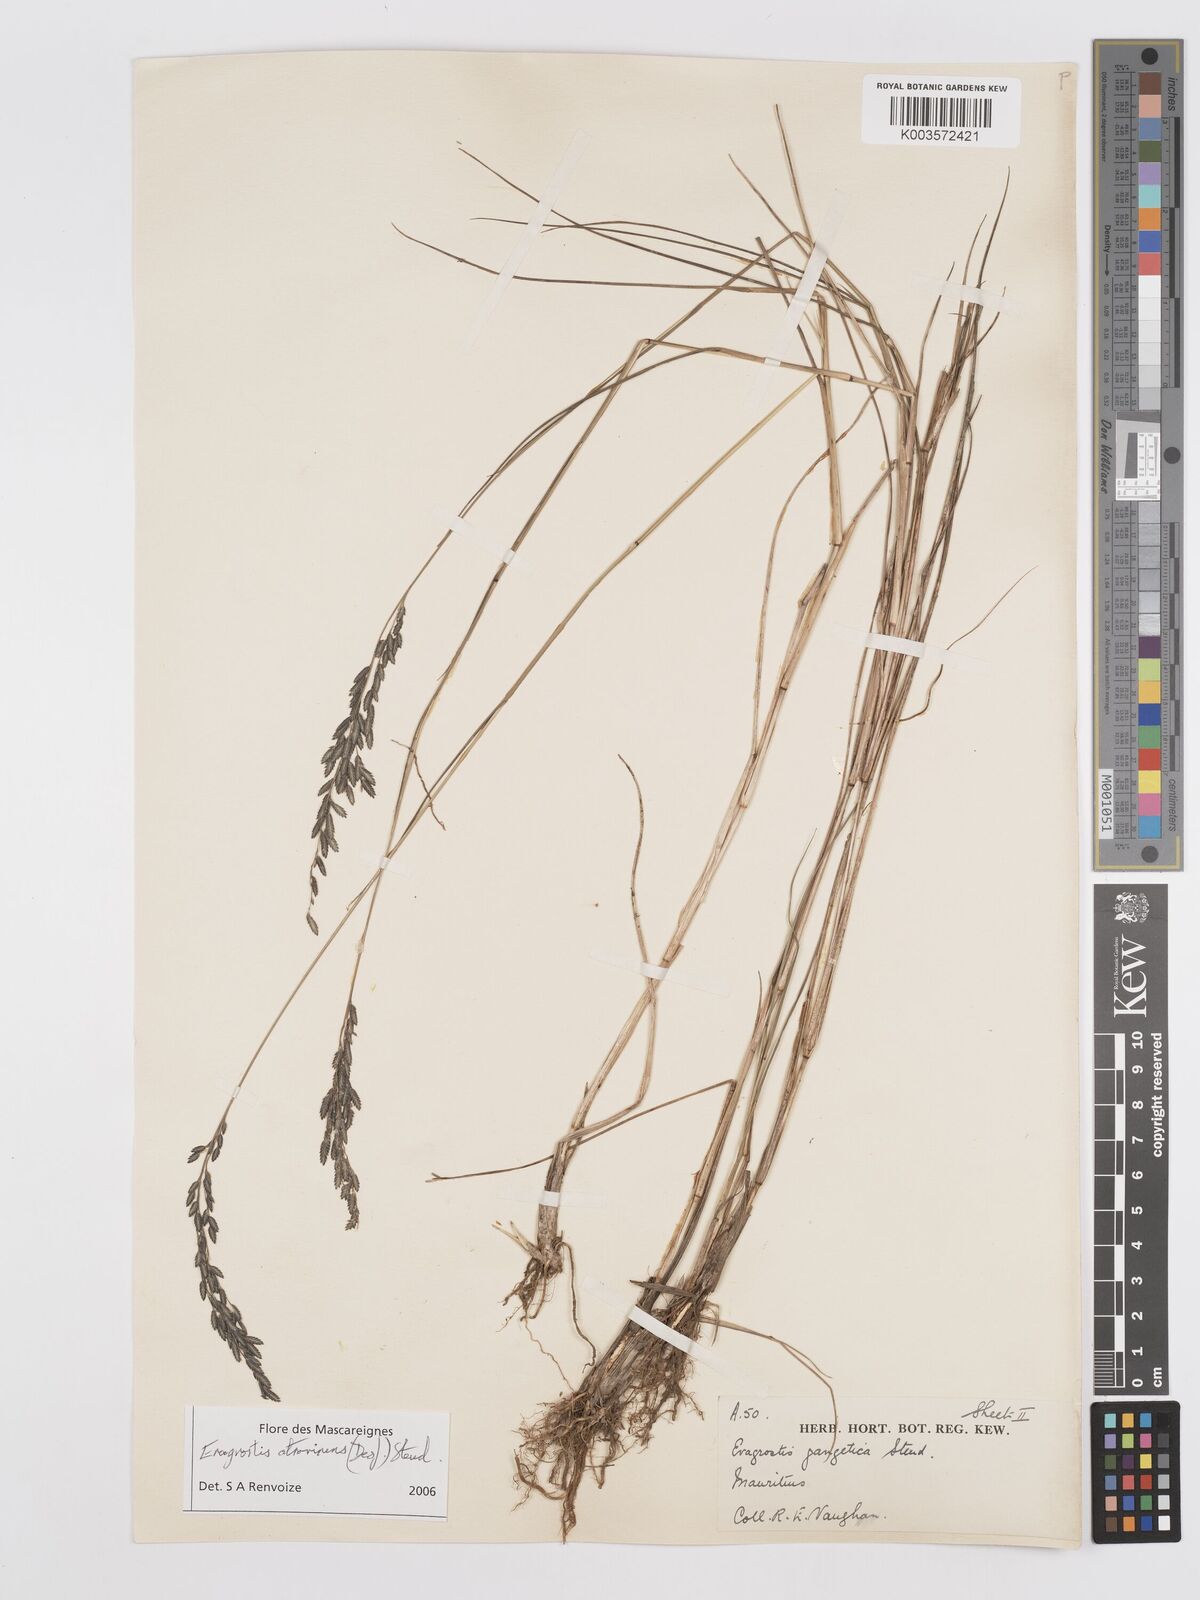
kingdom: Plantae
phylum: Tracheophyta
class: Liliopsida
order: Poales
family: Poaceae
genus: Eragrostis
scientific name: Eragrostis papposa
